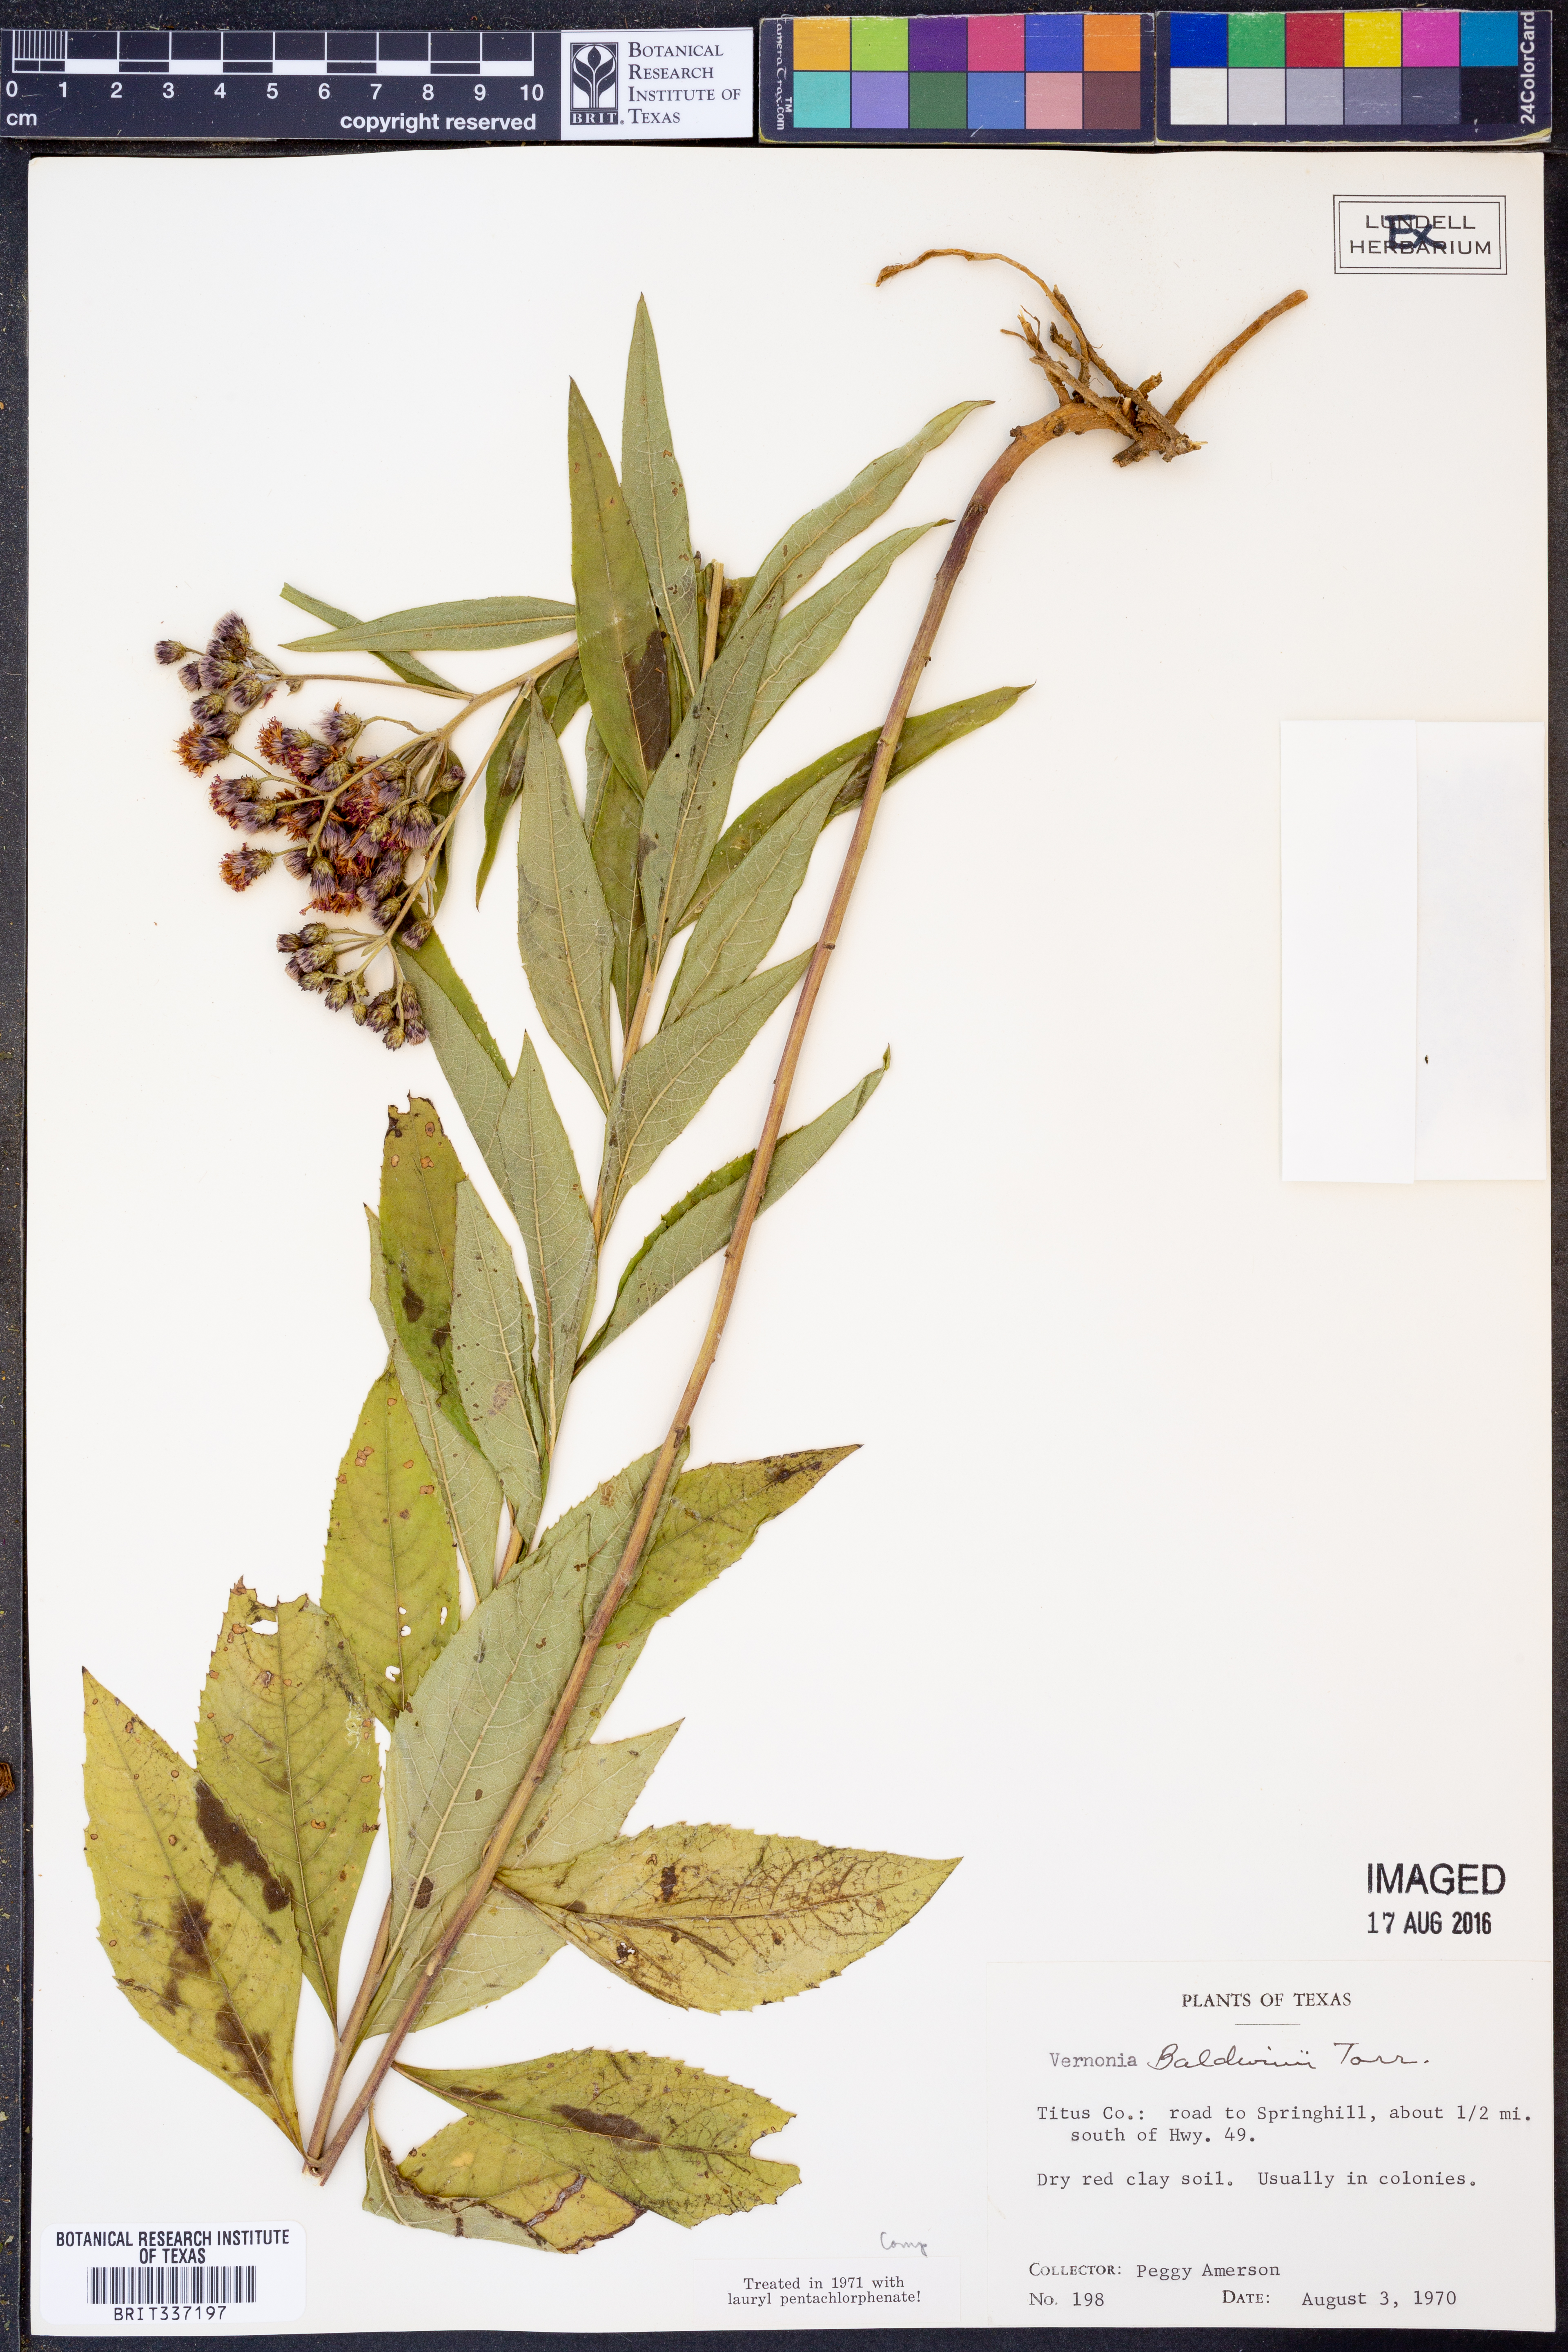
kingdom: Plantae
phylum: Tracheophyta
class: Magnoliopsida
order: Asterales
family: Asteraceae
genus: Vernonia
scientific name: Vernonia baldwinii
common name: Western ironweed
